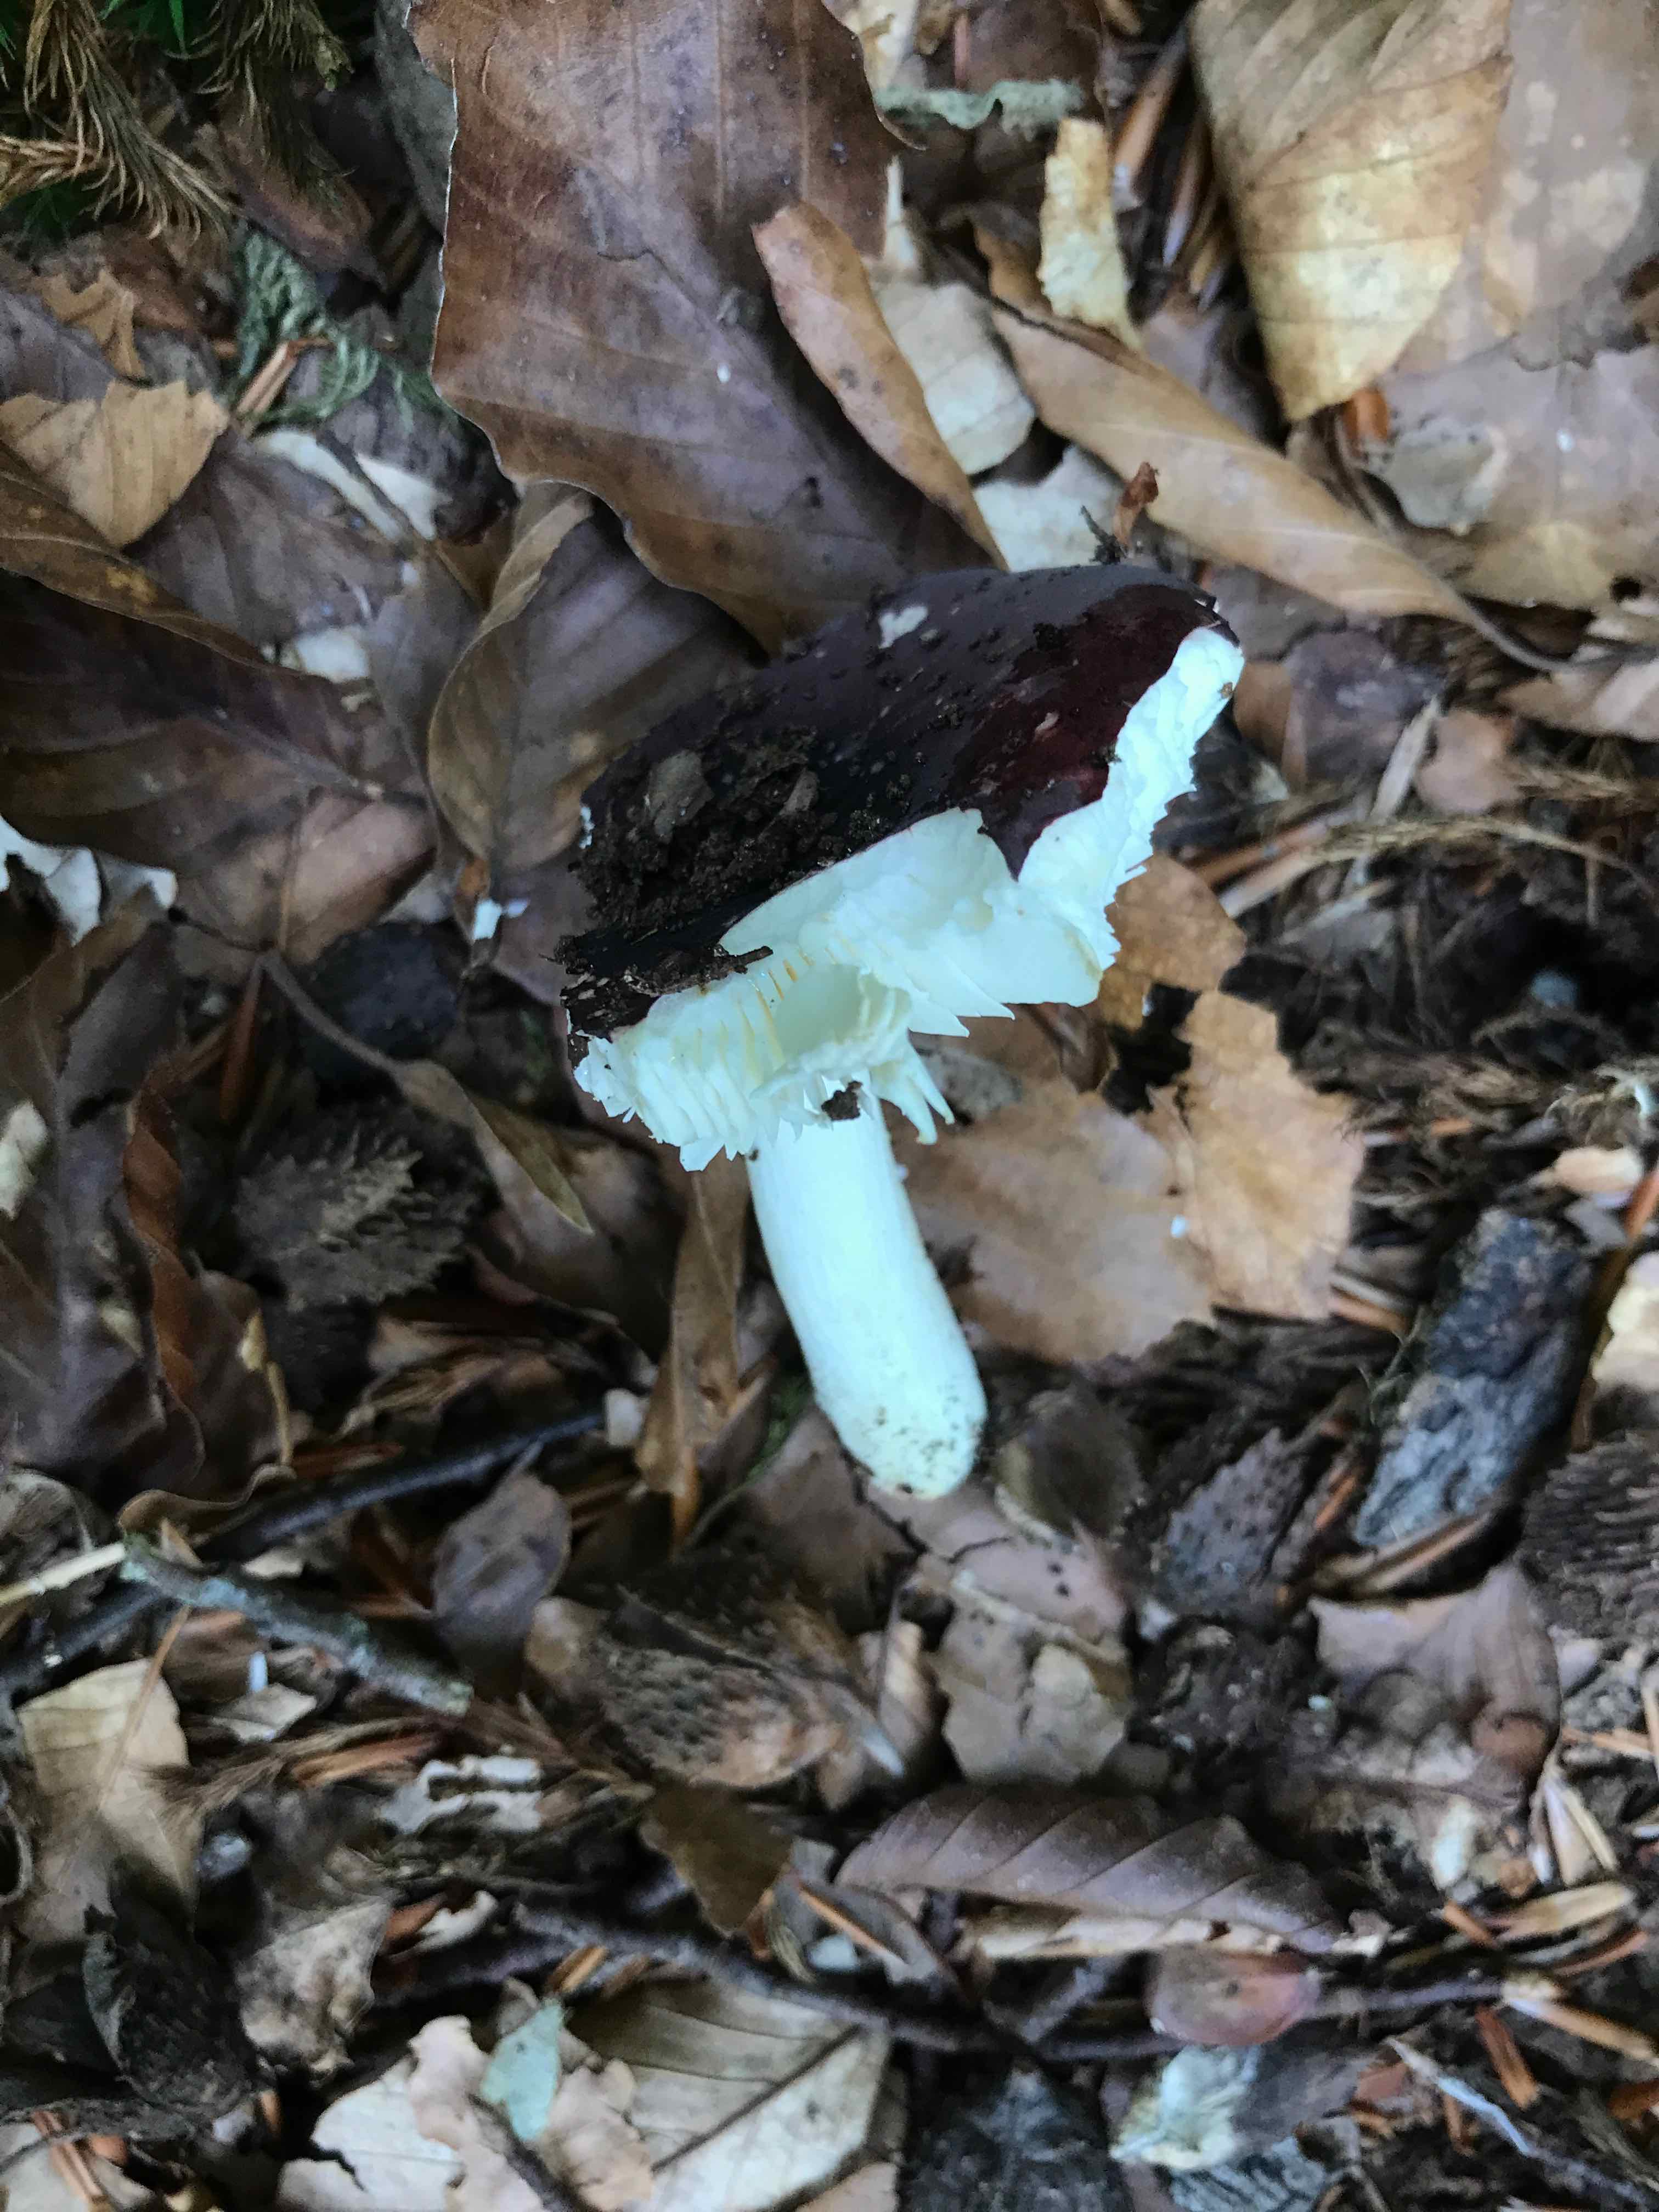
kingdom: Fungi
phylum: Basidiomycota
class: Agaricomycetes
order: Russulales
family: Russulaceae
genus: Russula
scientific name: Russula brunneoviolacea
